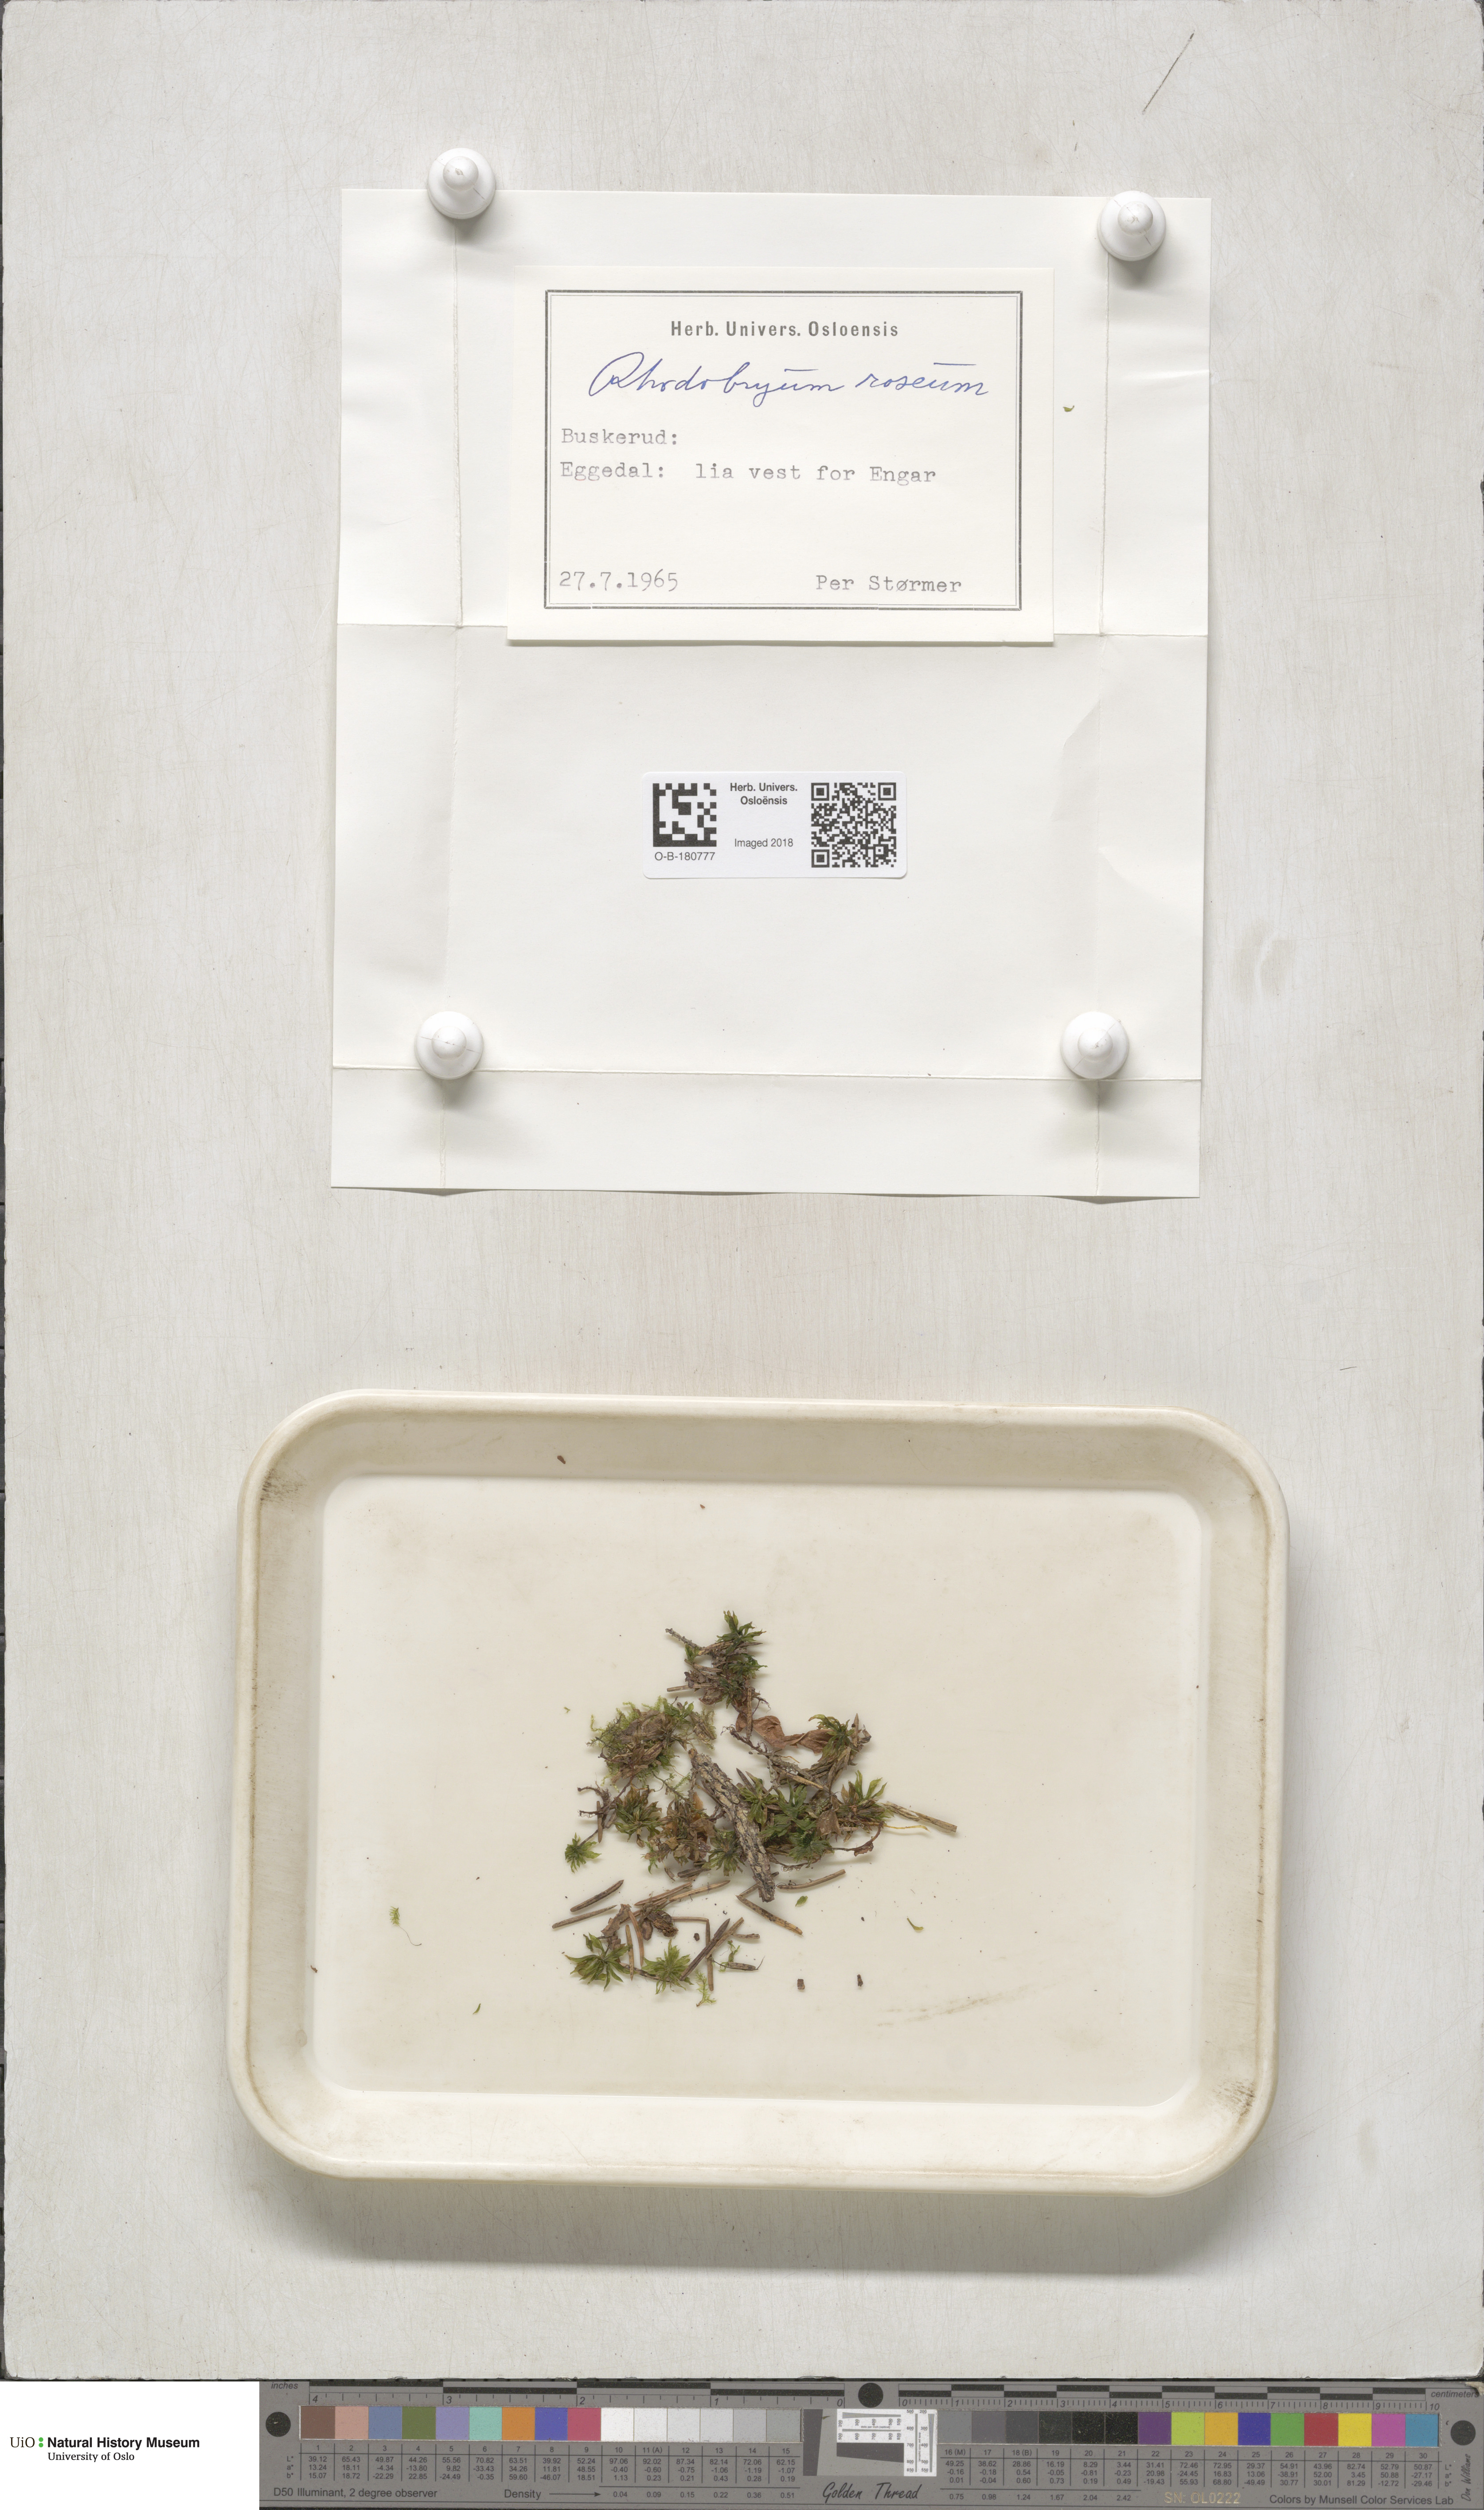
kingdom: Plantae
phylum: Bryophyta
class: Bryopsida
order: Bryales
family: Bryaceae
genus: Rhodobryum
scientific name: Rhodobryum roseum
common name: Rose-moss
